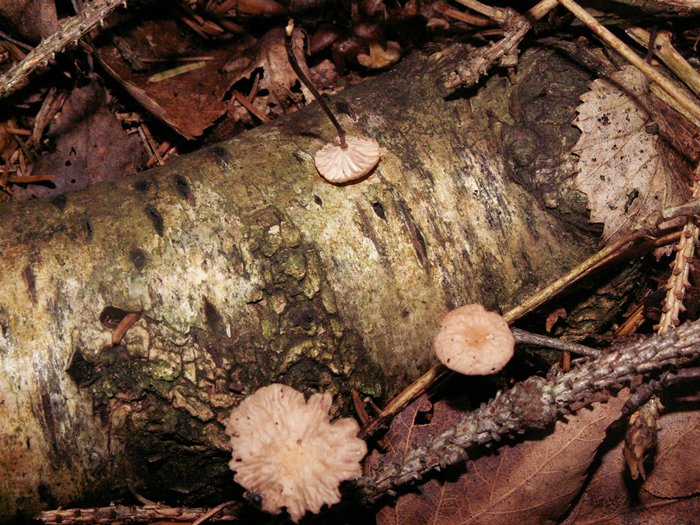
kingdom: Fungi
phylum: Basidiomycota
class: Agaricomycetes
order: Agaricales
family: Omphalotaceae
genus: Paragymnopus
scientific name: Paragymnopus perforans
